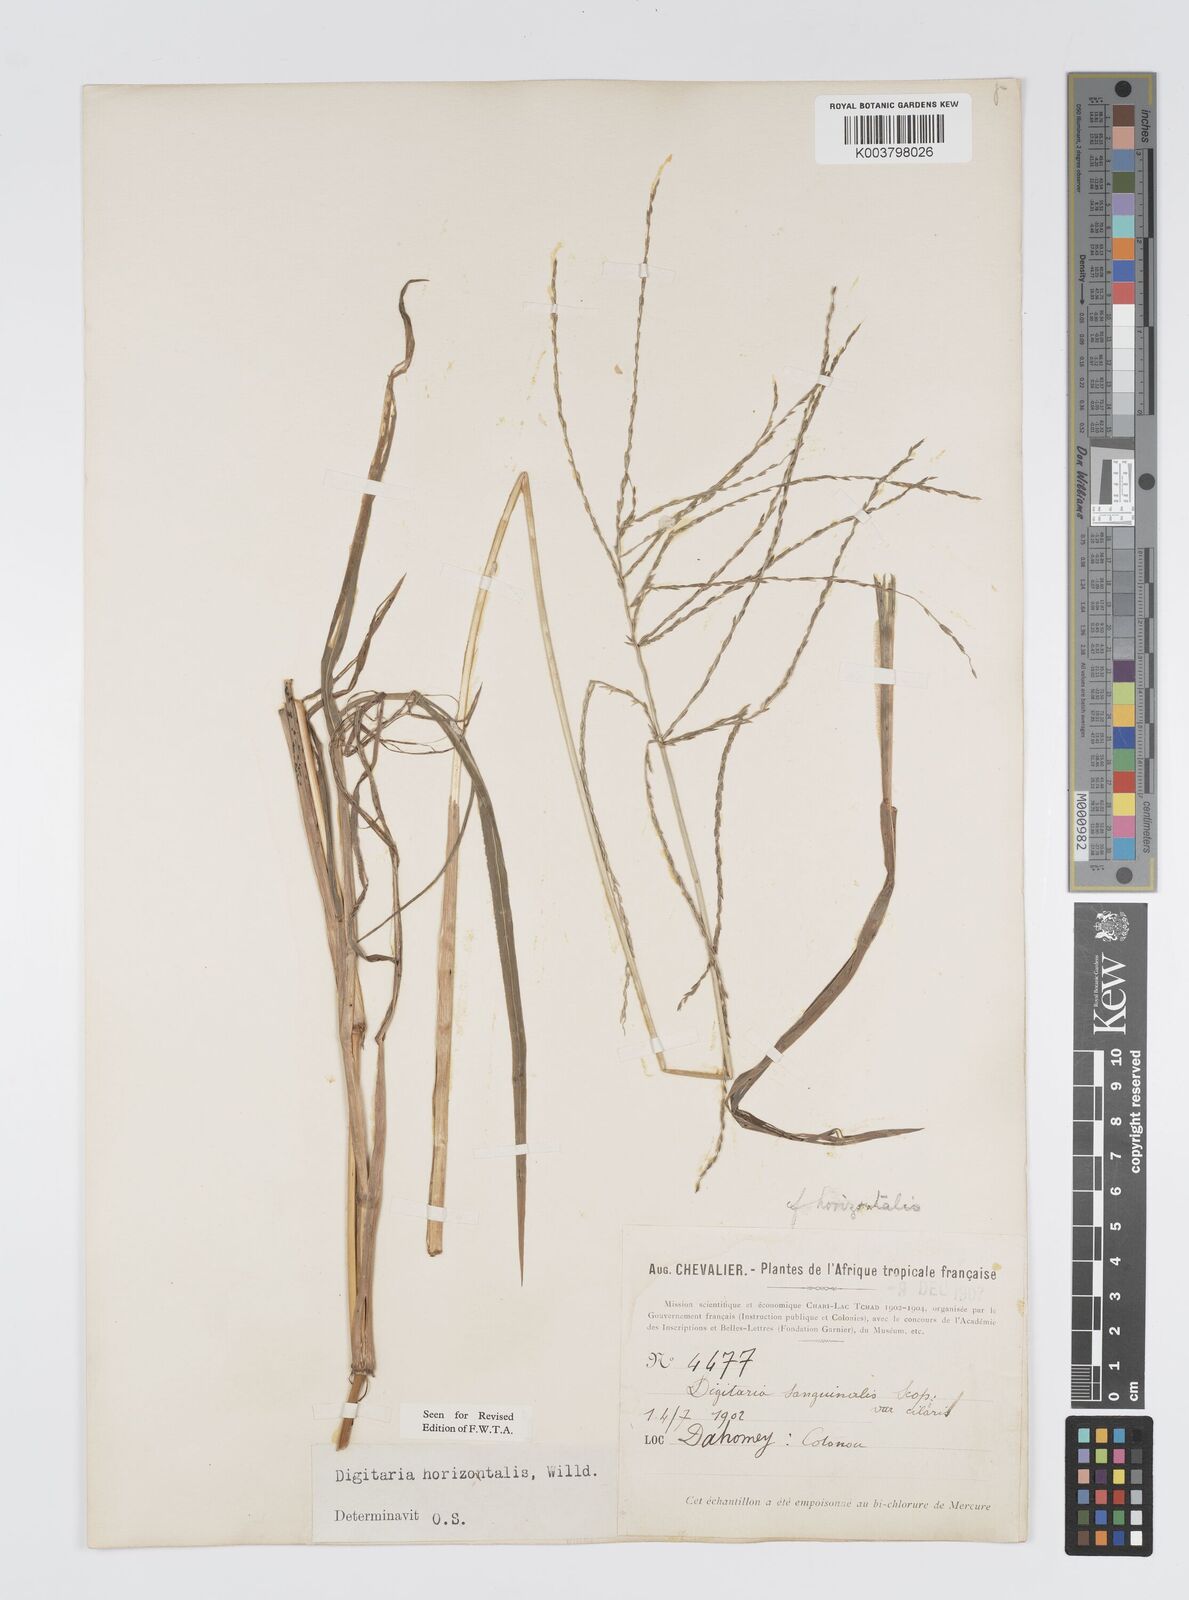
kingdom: Plantae
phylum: Tracheophyta
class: Liliopsida
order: Poales
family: Poaceae
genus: Digitaria
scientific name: Digitaria horizontalis
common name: Jamaican crabgrass
